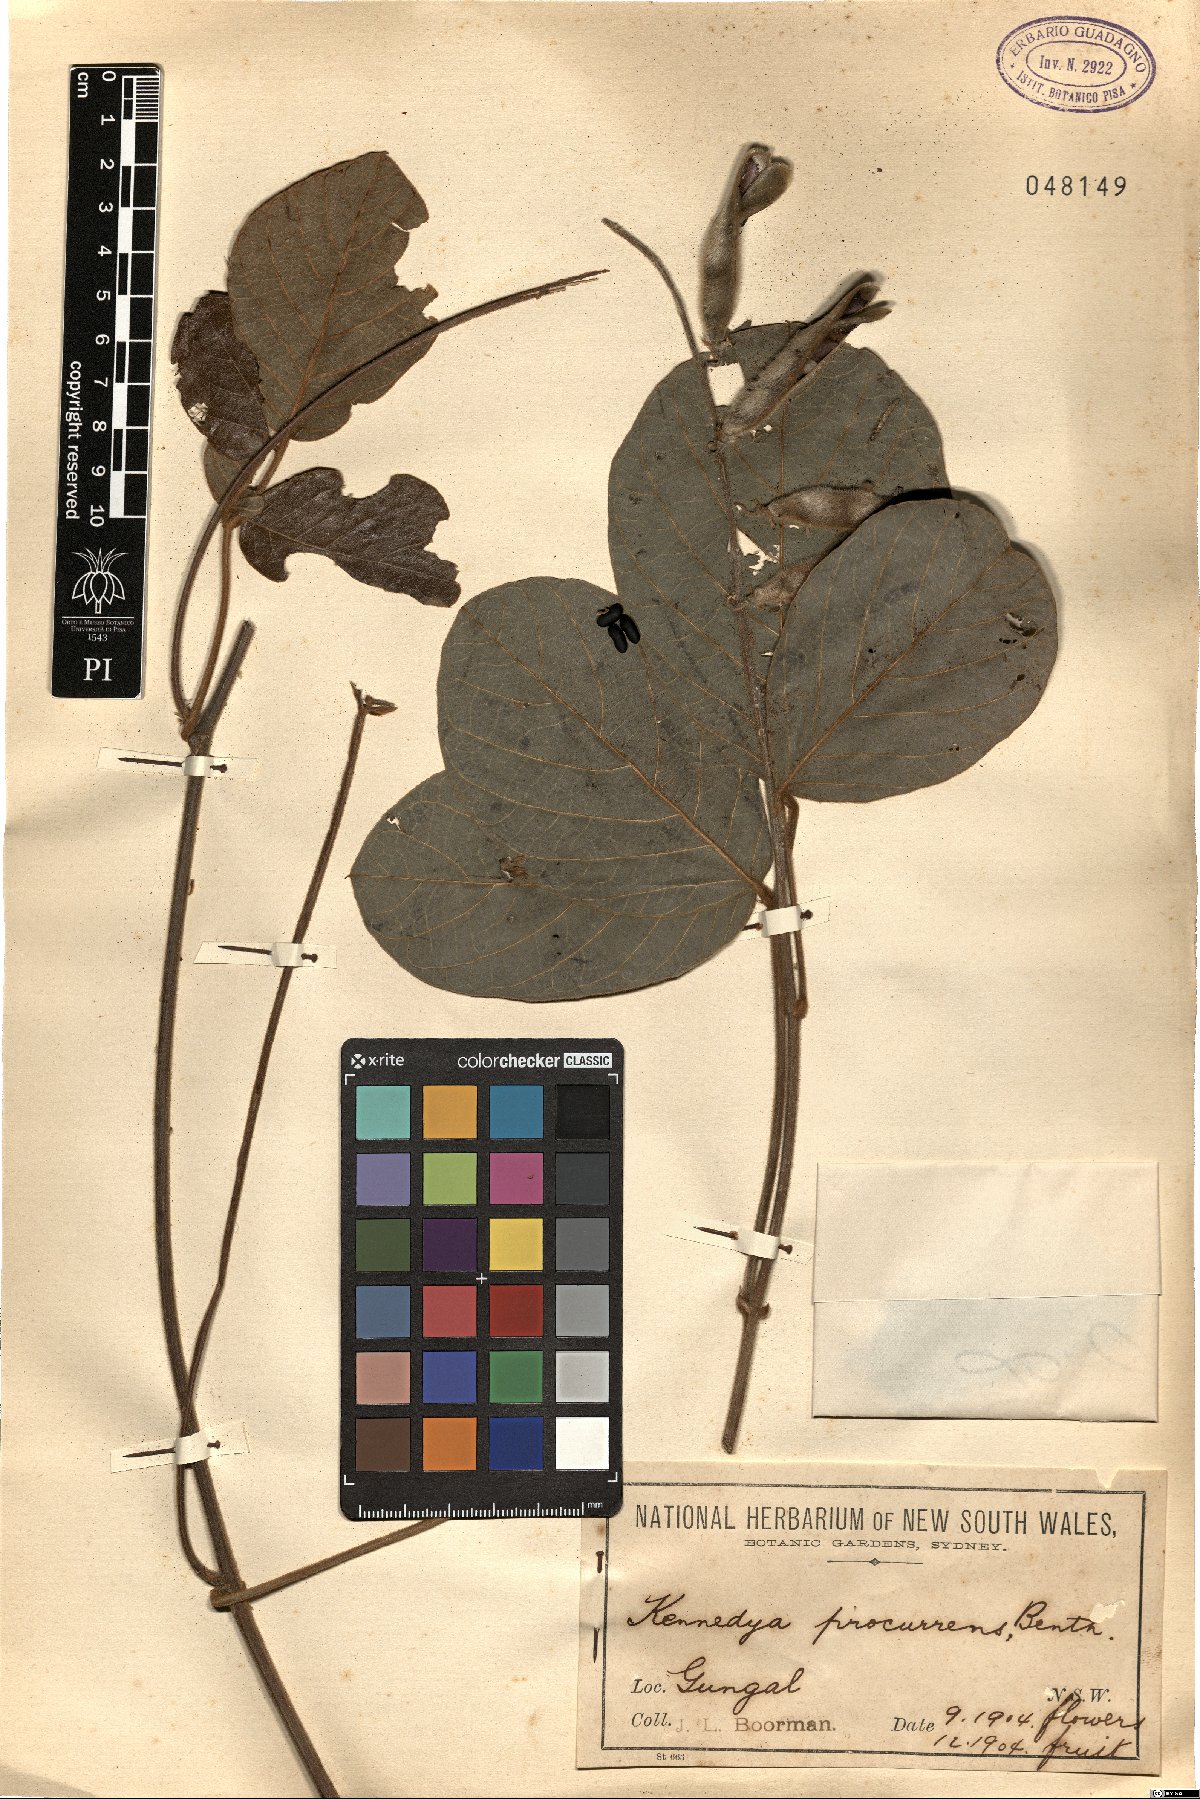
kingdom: Plantae
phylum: Tracheophyta
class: Magnoliopsida
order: Fabales
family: Fabaceae
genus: Kennedia
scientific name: Kennedia procurrens
